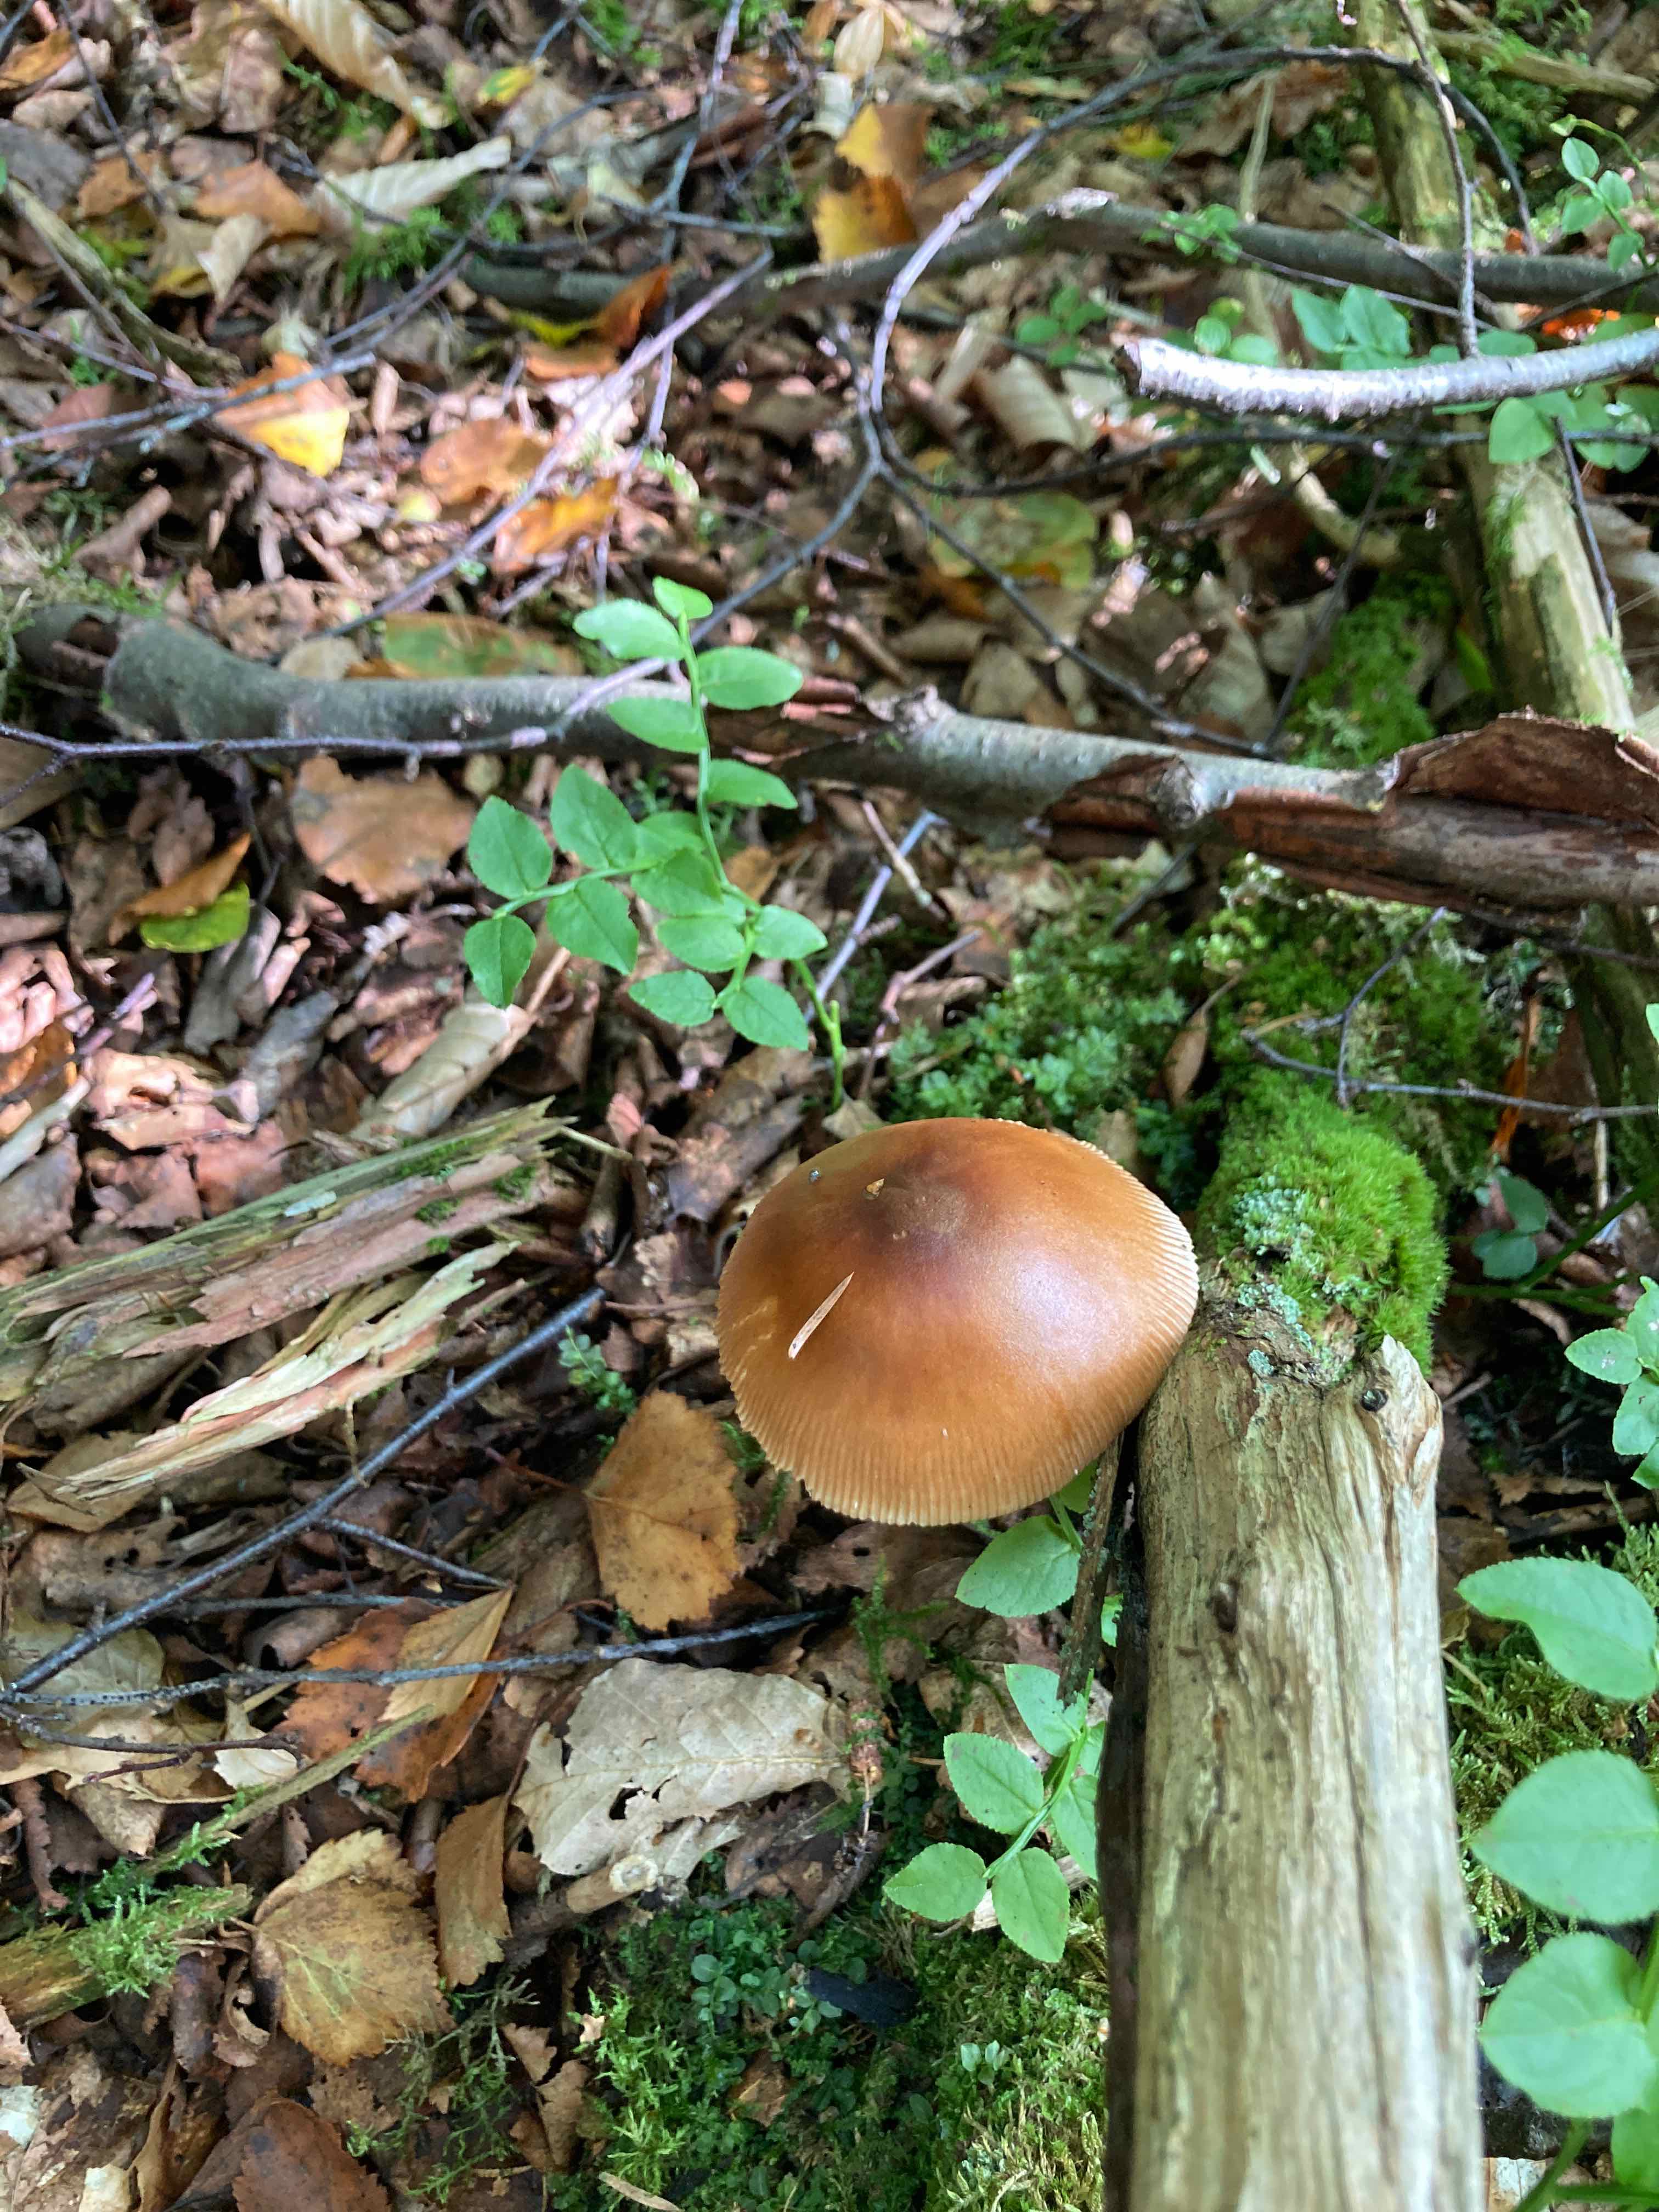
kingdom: Fungi
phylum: Basidiomycota
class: Agaricomycetes
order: Agaricales
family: Amanitaceae
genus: Amanita
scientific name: Amanita fulva
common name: brun kam-fluesvamp
